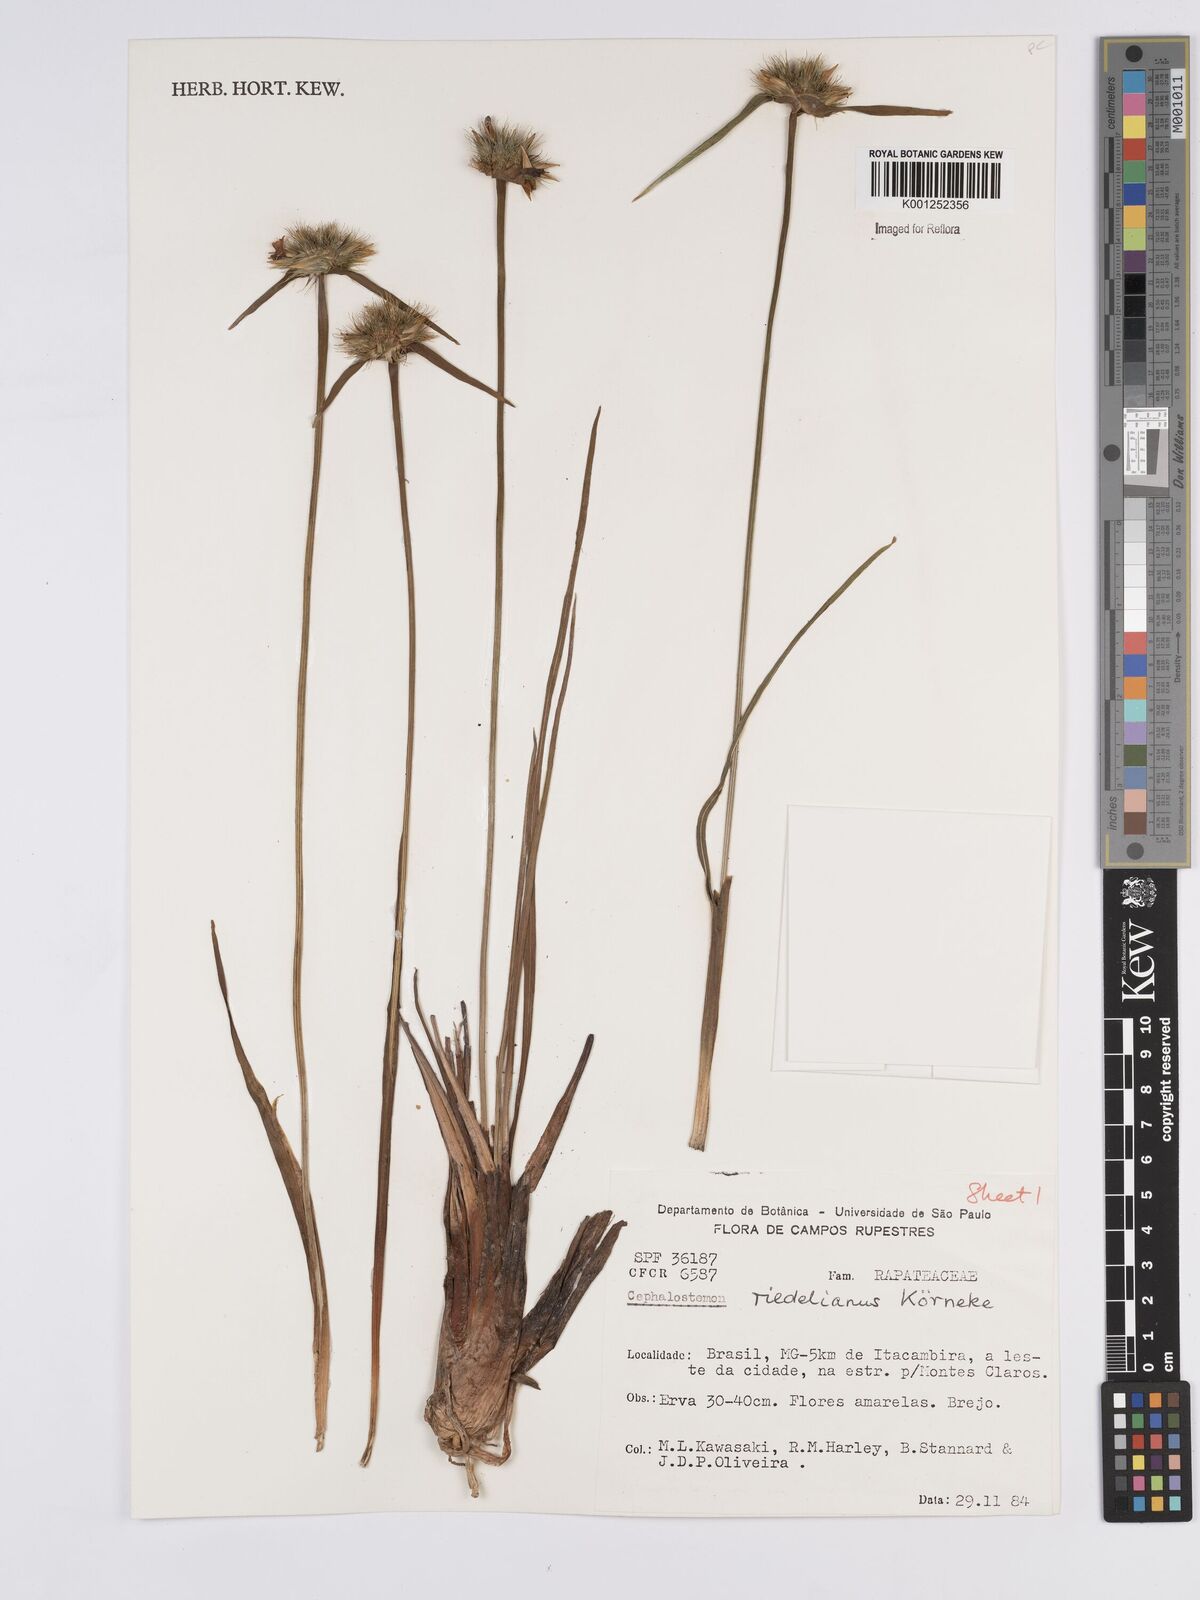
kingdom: Plantae
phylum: Tracheophyta
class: Liliopsida
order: Poales
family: Rapateaceae
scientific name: Rapateaceae
